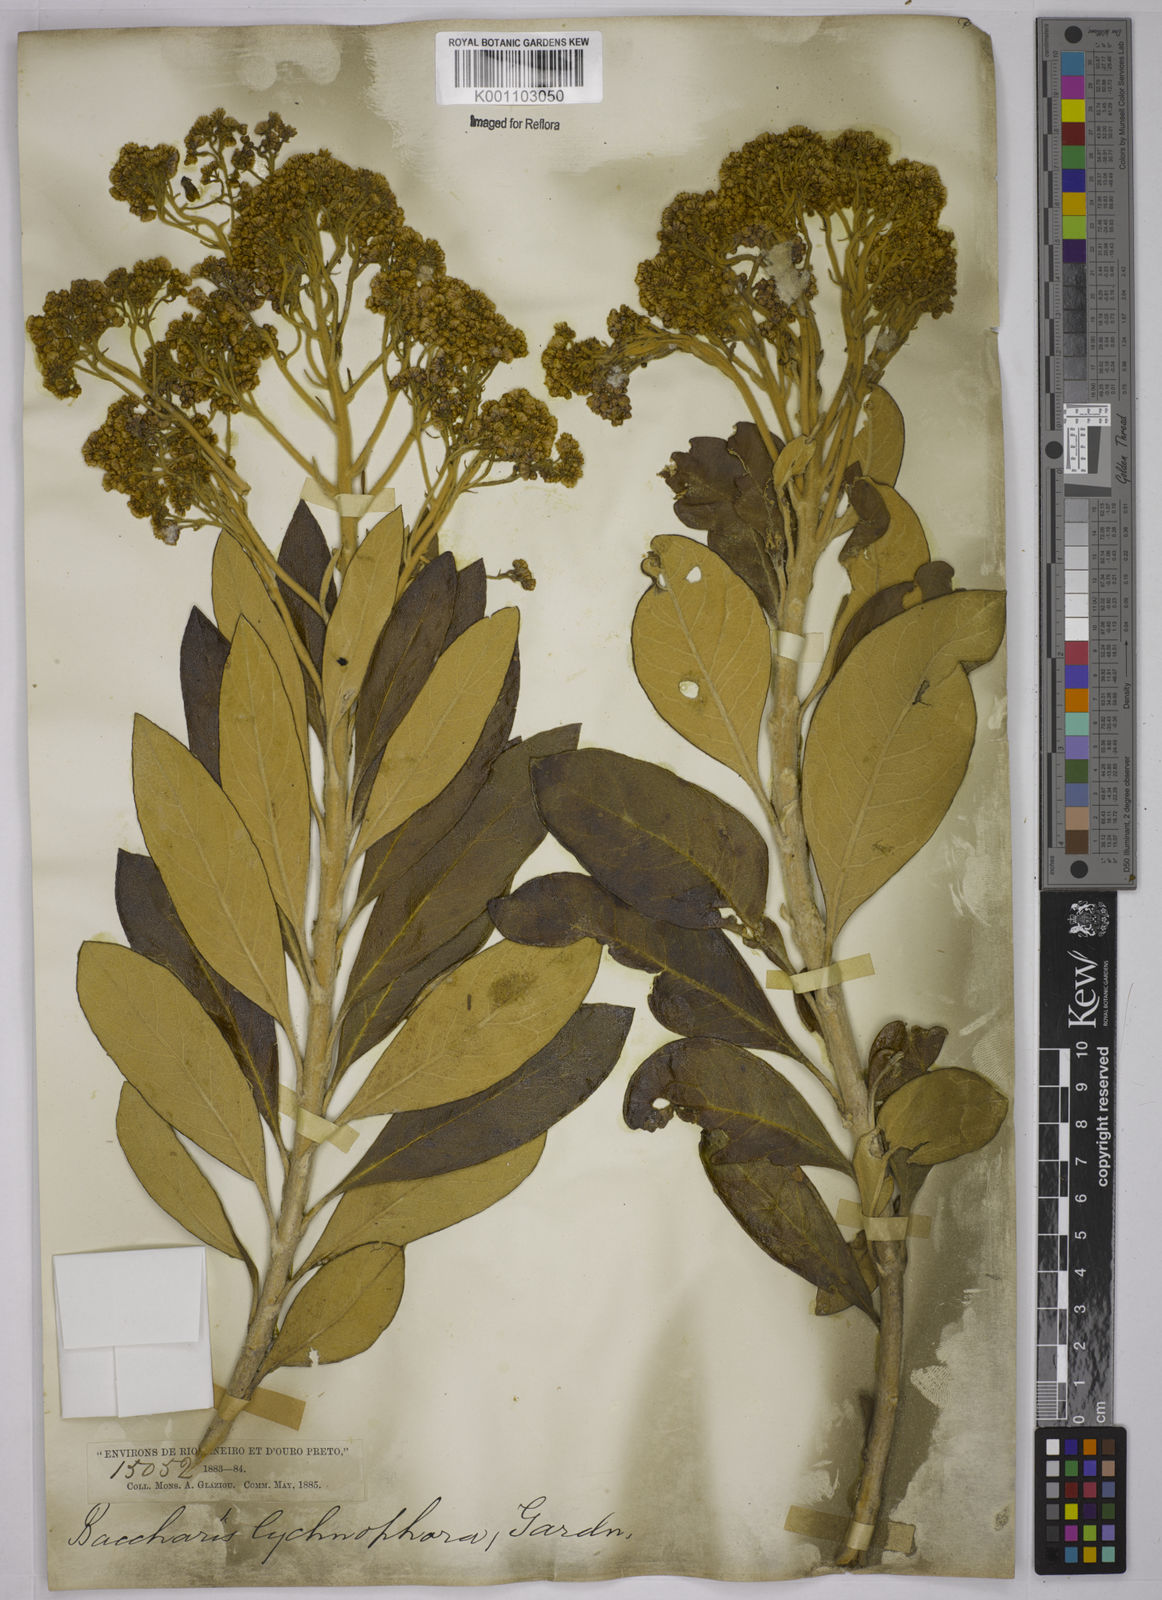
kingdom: Plantae
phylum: Tracheophyta
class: Magnoliopsida
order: Asterales
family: Asteraceae
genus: Baccharis
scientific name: Baccharis lychnophora
